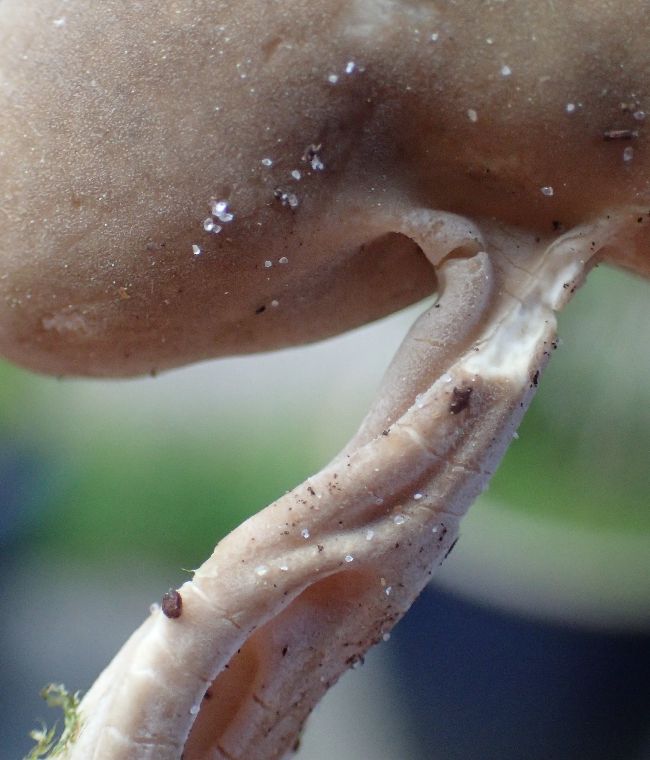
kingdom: Fungi
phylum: Ascomycota
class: Pezizomycetes
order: Pezizales
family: Helvellaceae
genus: Helvella
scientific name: Helvella solitaria
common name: Quélets foldhat
